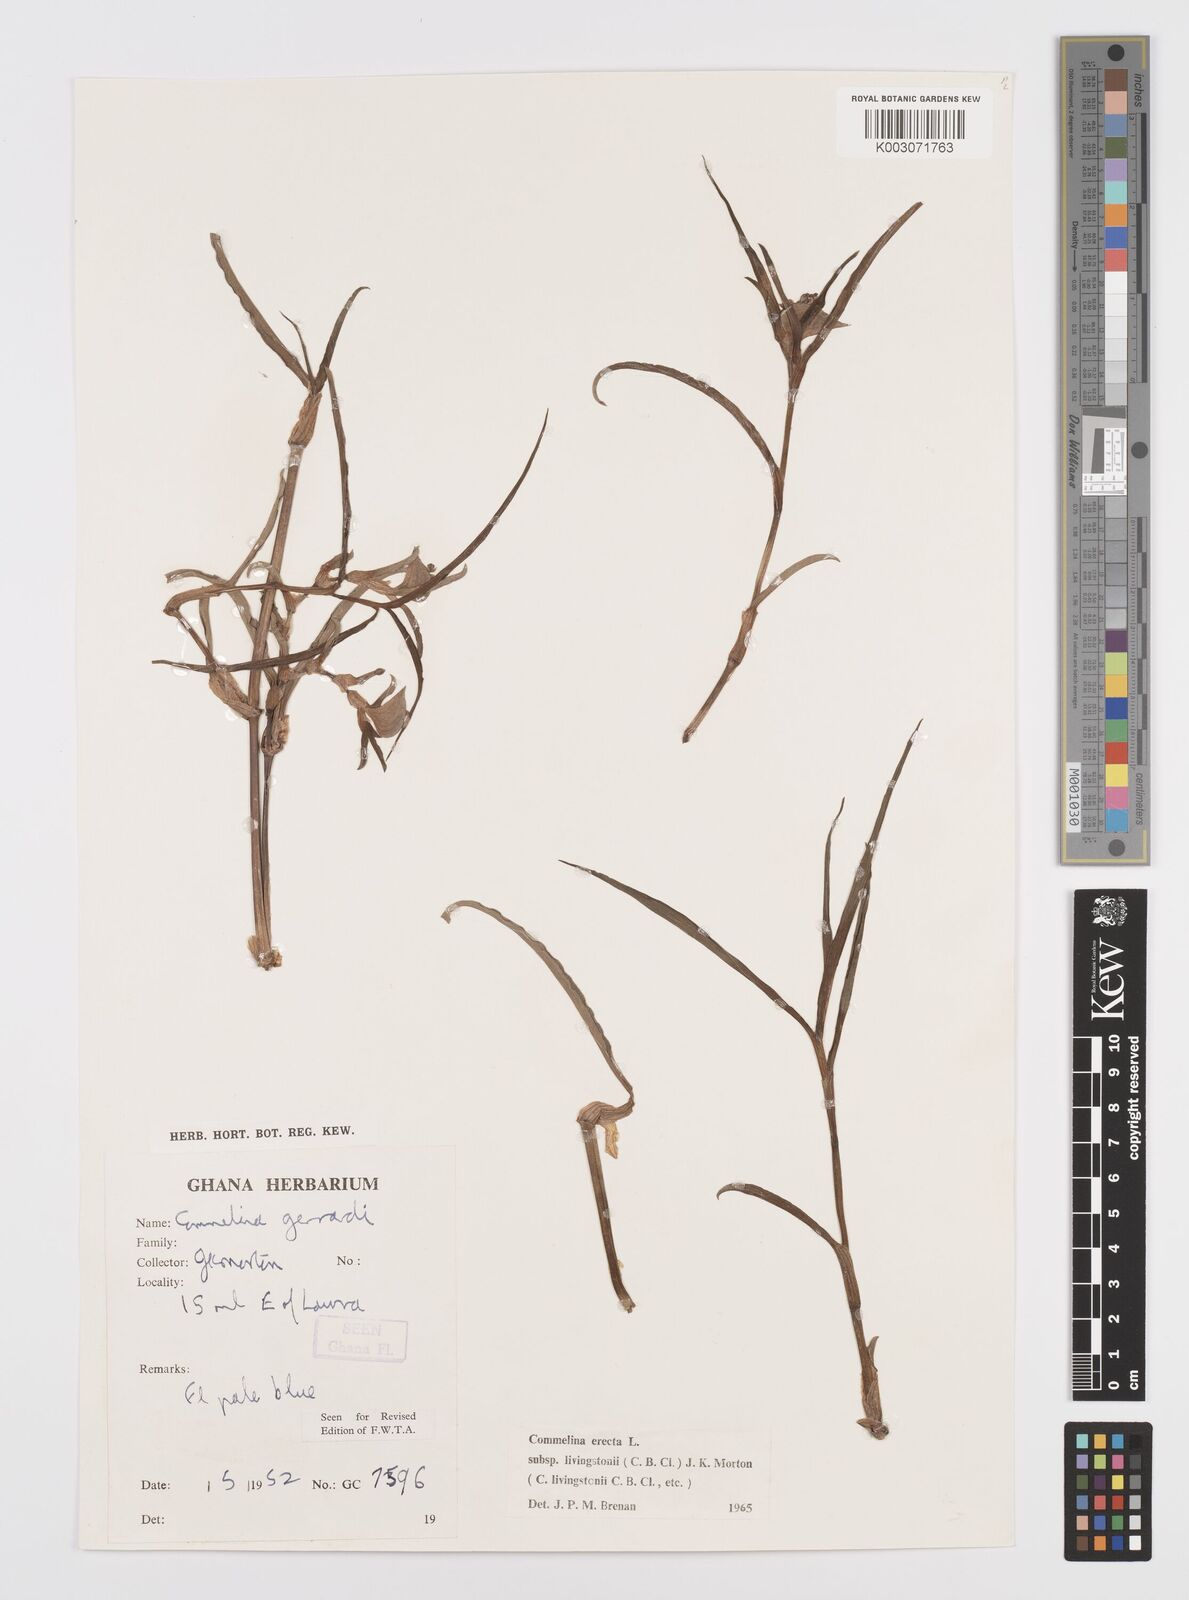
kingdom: Plantae
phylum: Tracheophyta
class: Liliopsida
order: Commelinales
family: Commelinaceae
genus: Commelina
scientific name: Commelina erecta
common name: Blousel blommetjie
